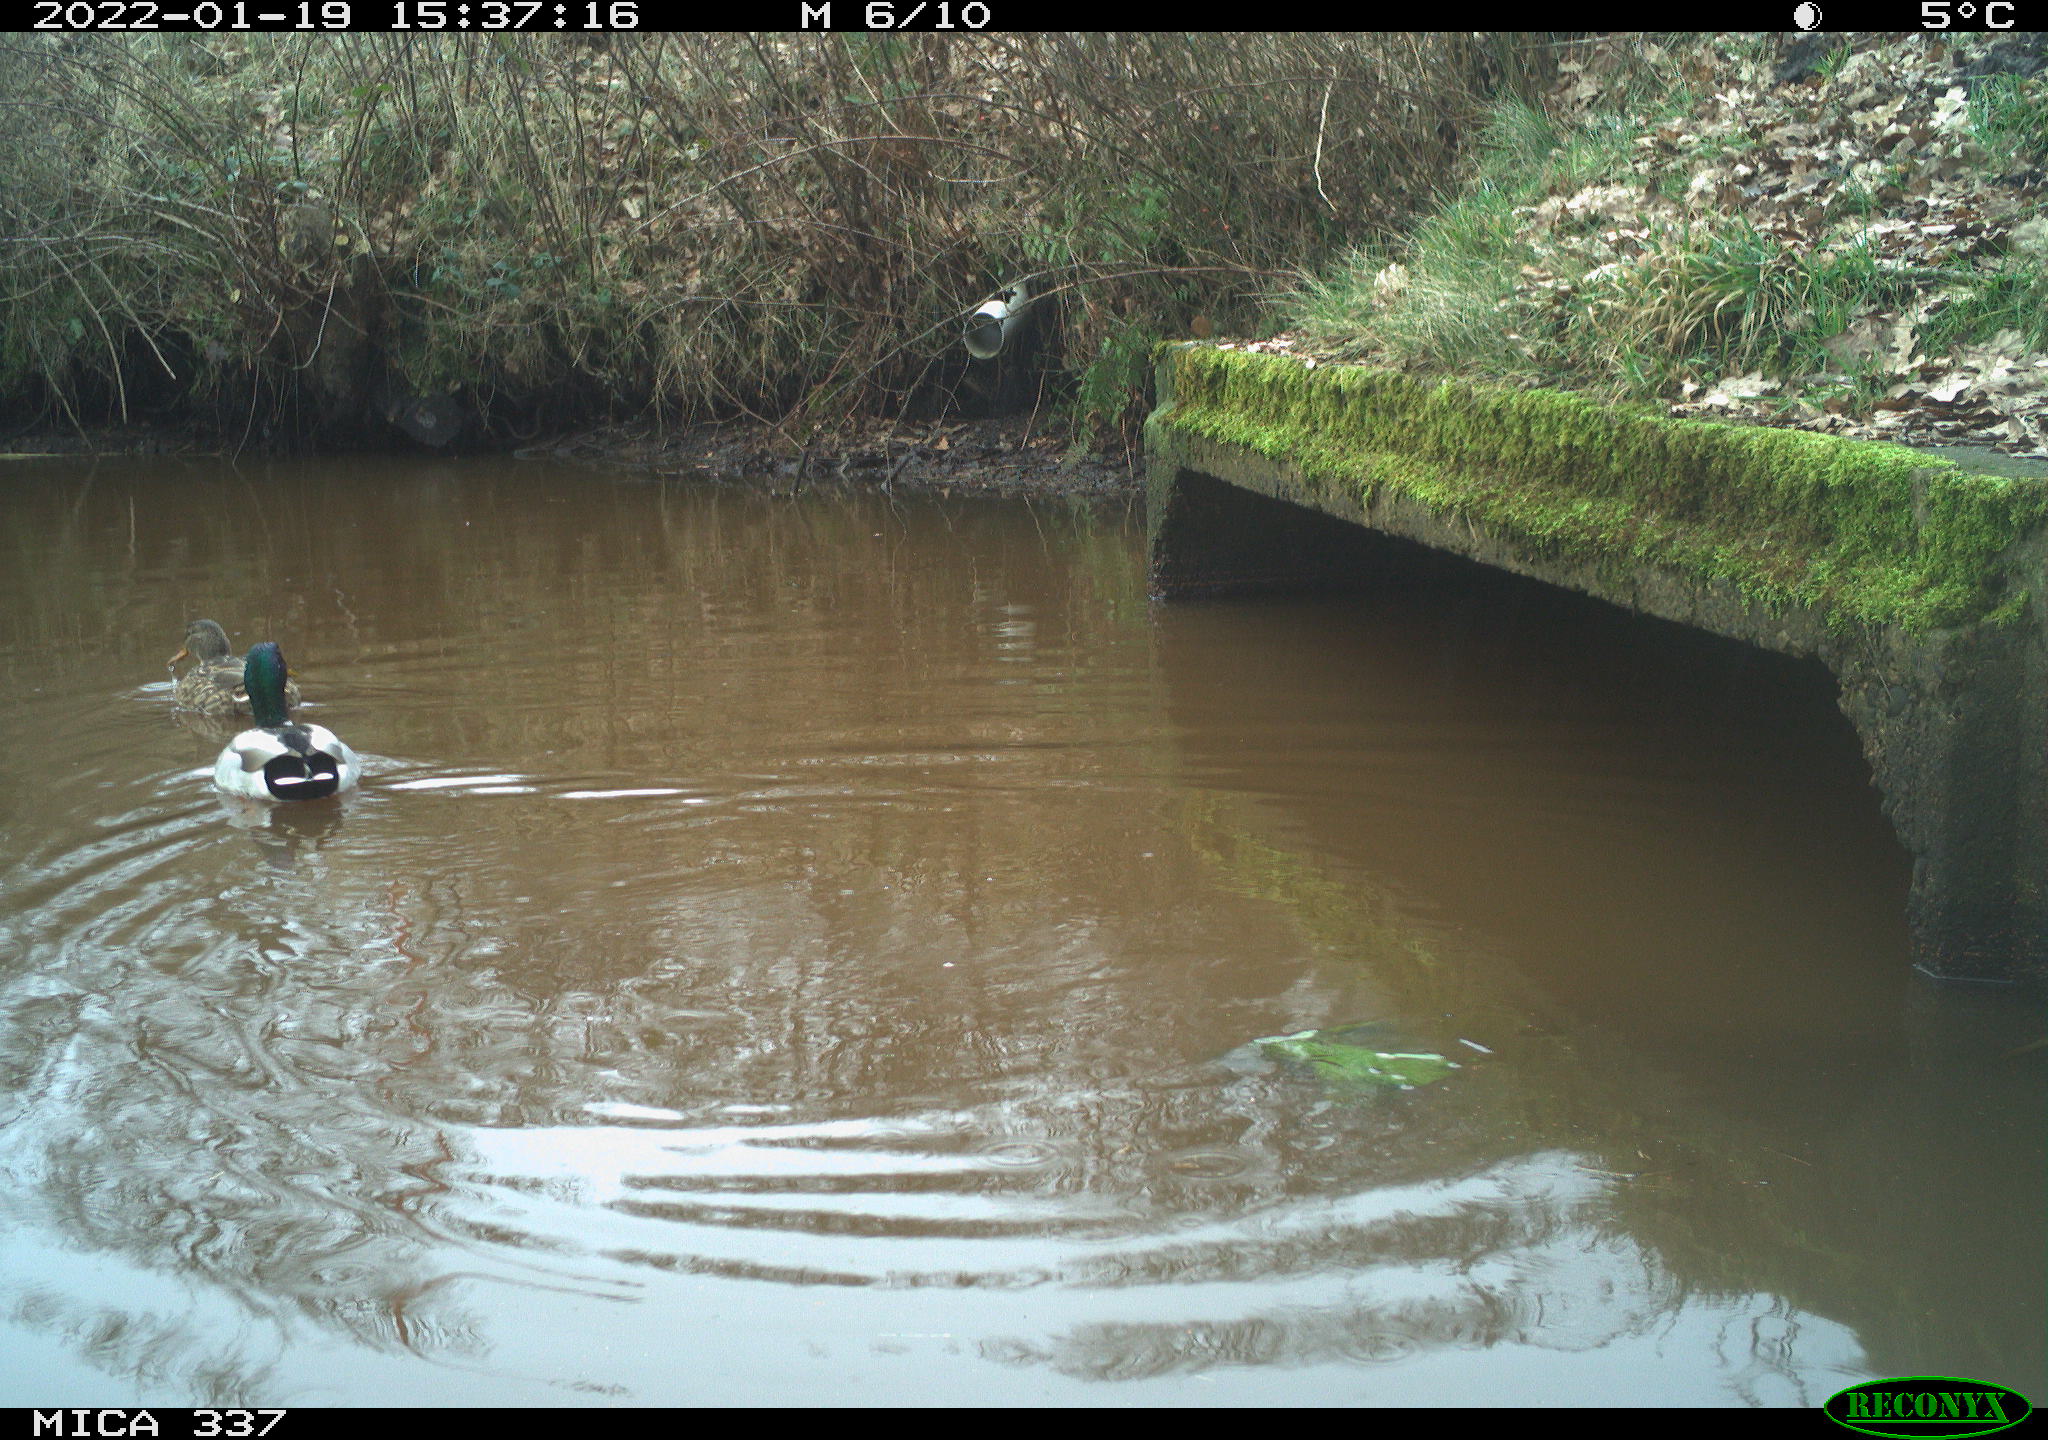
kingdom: Animalia
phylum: Chordata
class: Aves
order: Anseriformes
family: Anatidae
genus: Anas
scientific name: Anas platyrhynchos
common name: Mallard
